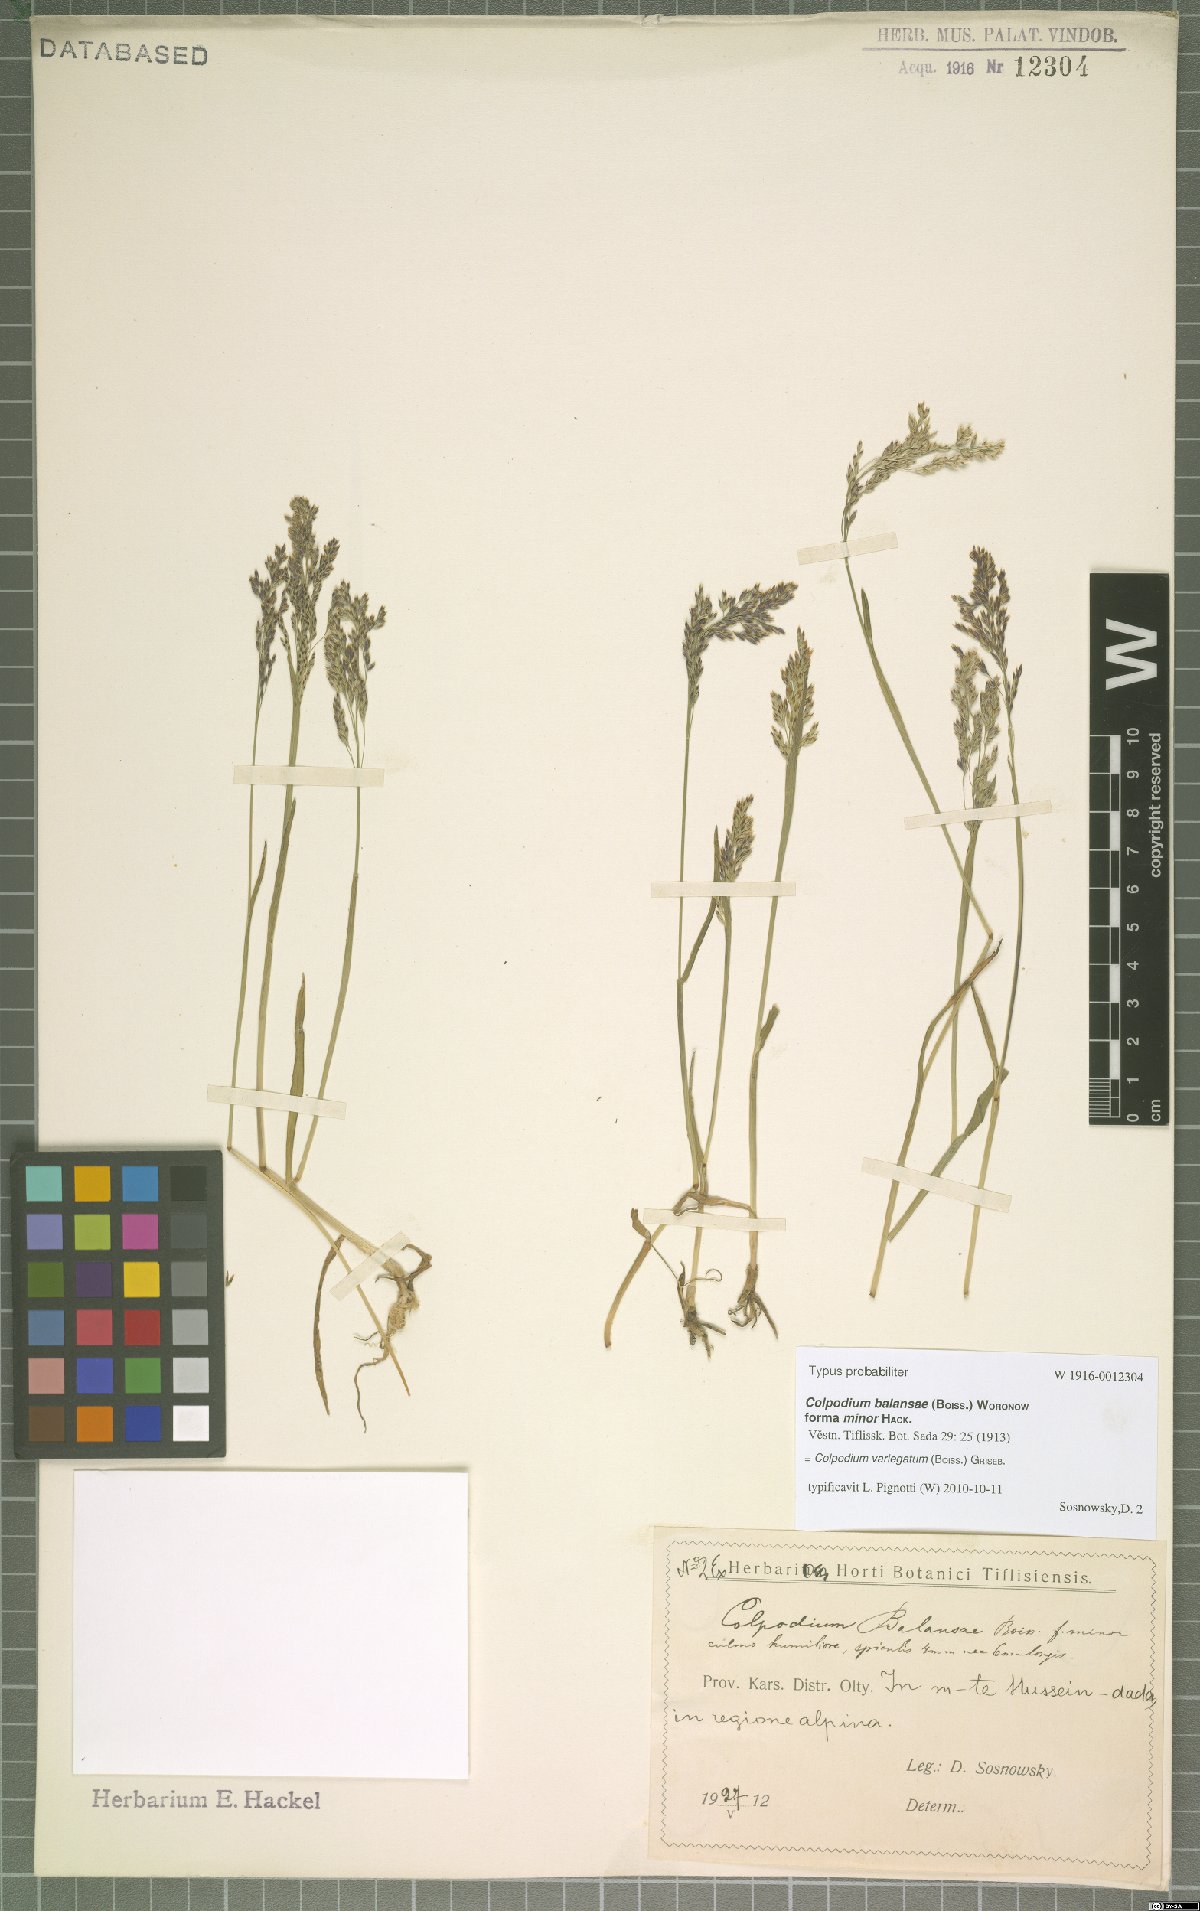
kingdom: Plantae
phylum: Tracheophyta
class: Liliopsida
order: Poales
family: Poaceae
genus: Catabrosella
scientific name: Catabrosella variegata
